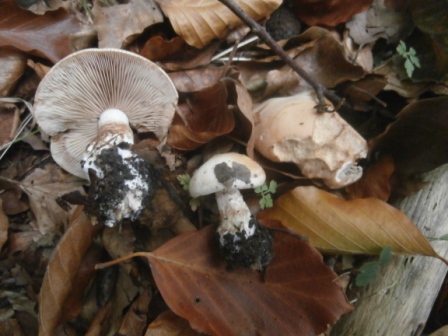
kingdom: Fungi
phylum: Basidiomycota
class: Agaricomycetes
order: Agaricales
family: Hymenogastraceae
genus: Hebeloma
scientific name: Hebeloma laterinum
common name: kakao-tåreblad
